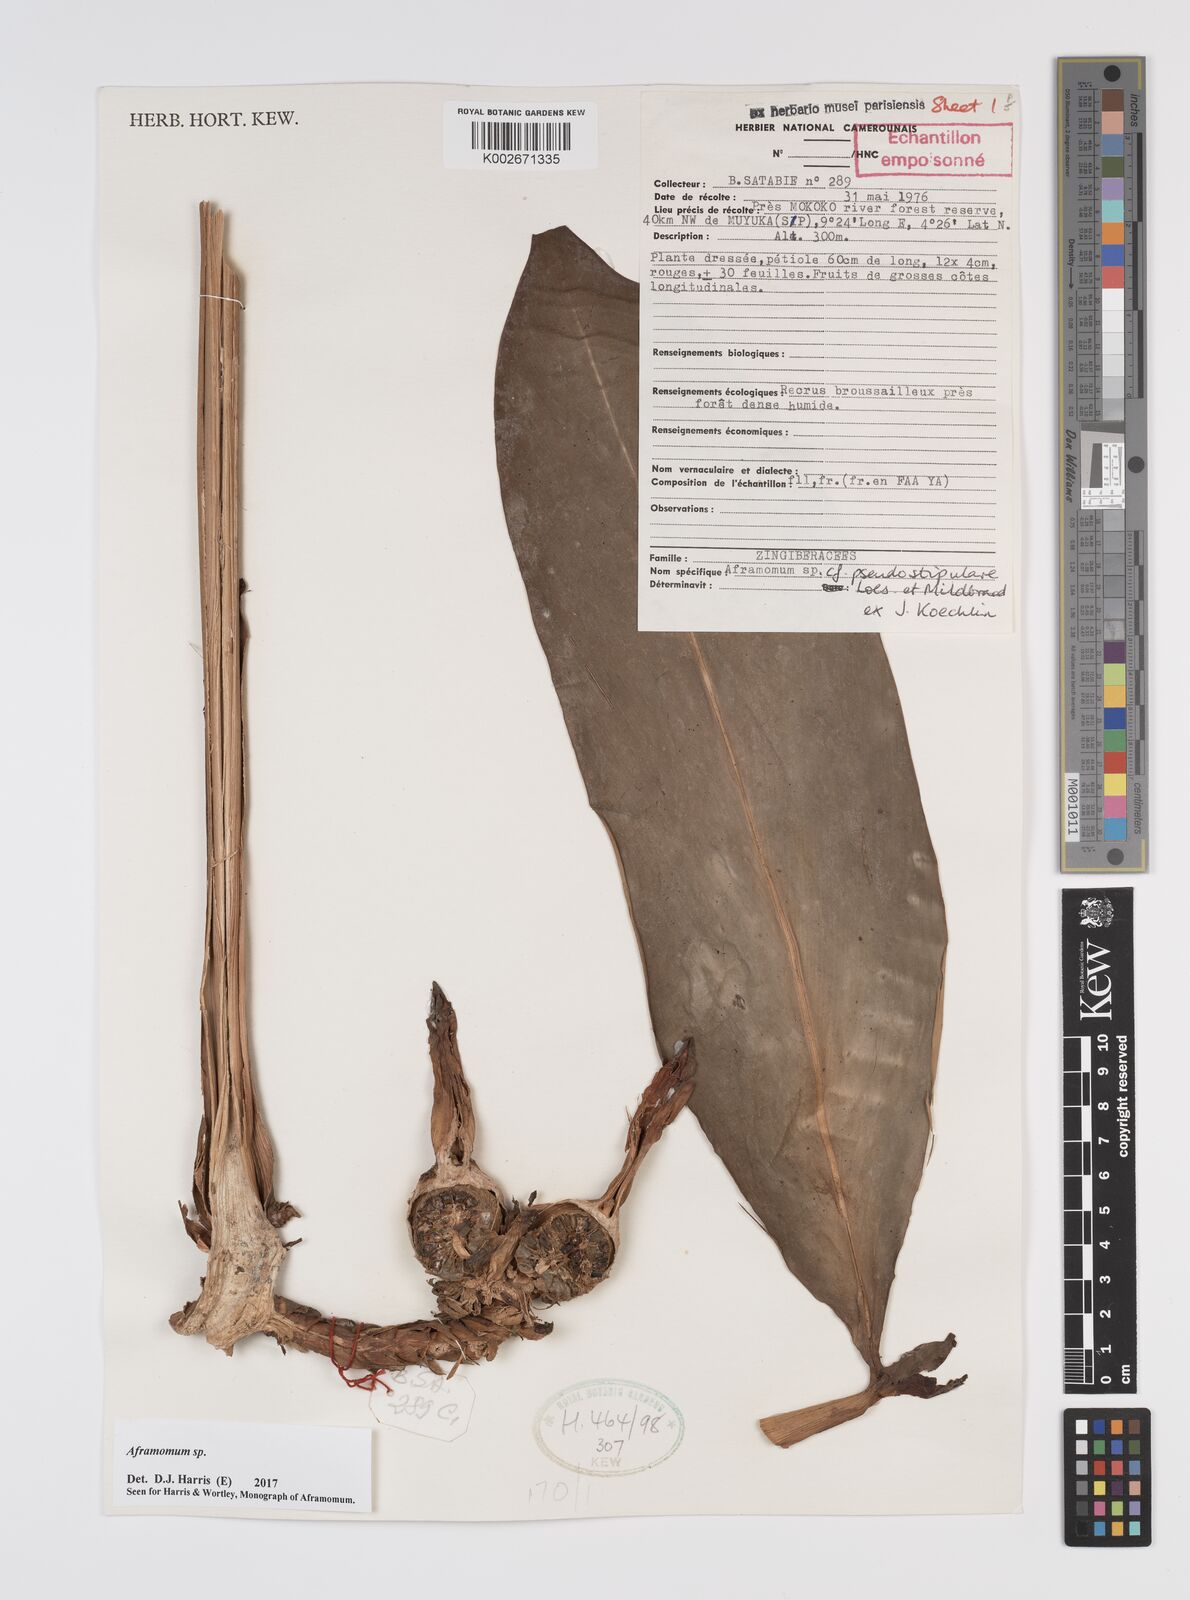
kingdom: Plantae
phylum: Tracheophyta
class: Liliopsida
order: Zingiberales
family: Zingiberaceae
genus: Aframomum
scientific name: Aframomum
